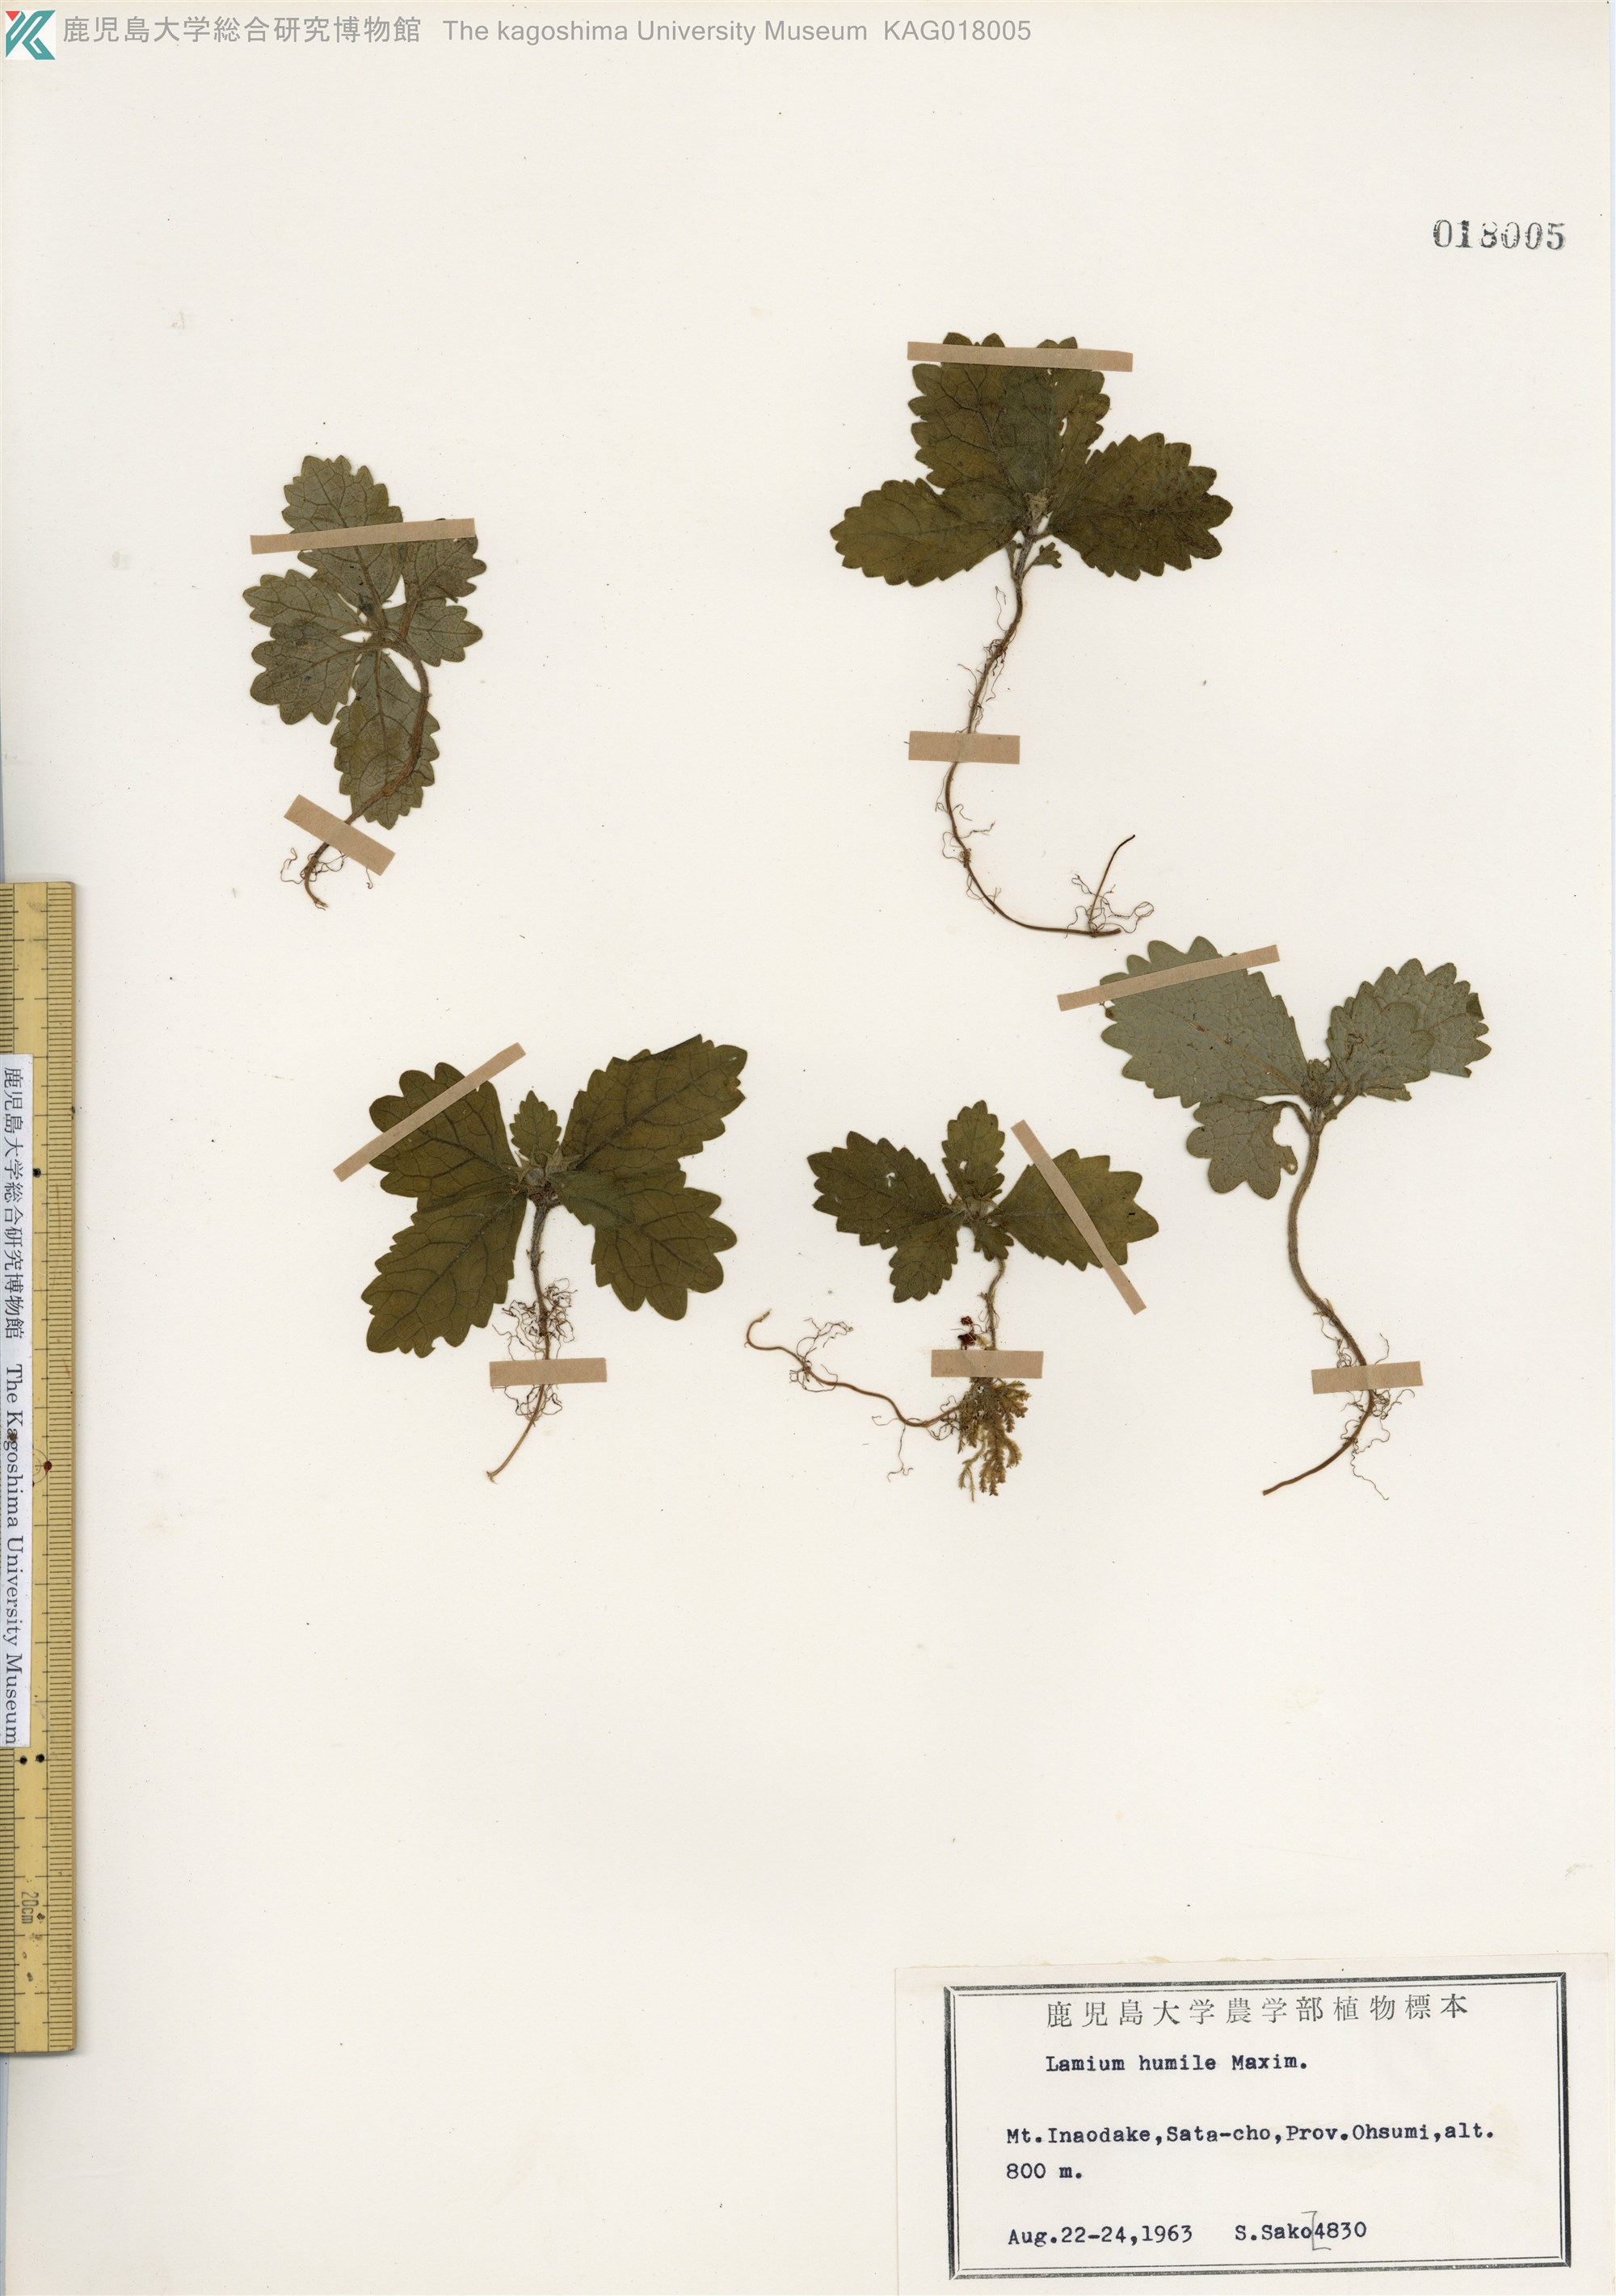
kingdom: Plantae
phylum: Tracheophyta
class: Magnoliopsida
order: Lamiales
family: Lamiaceae
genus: Ajugoides
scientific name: Ajugoides humilis
